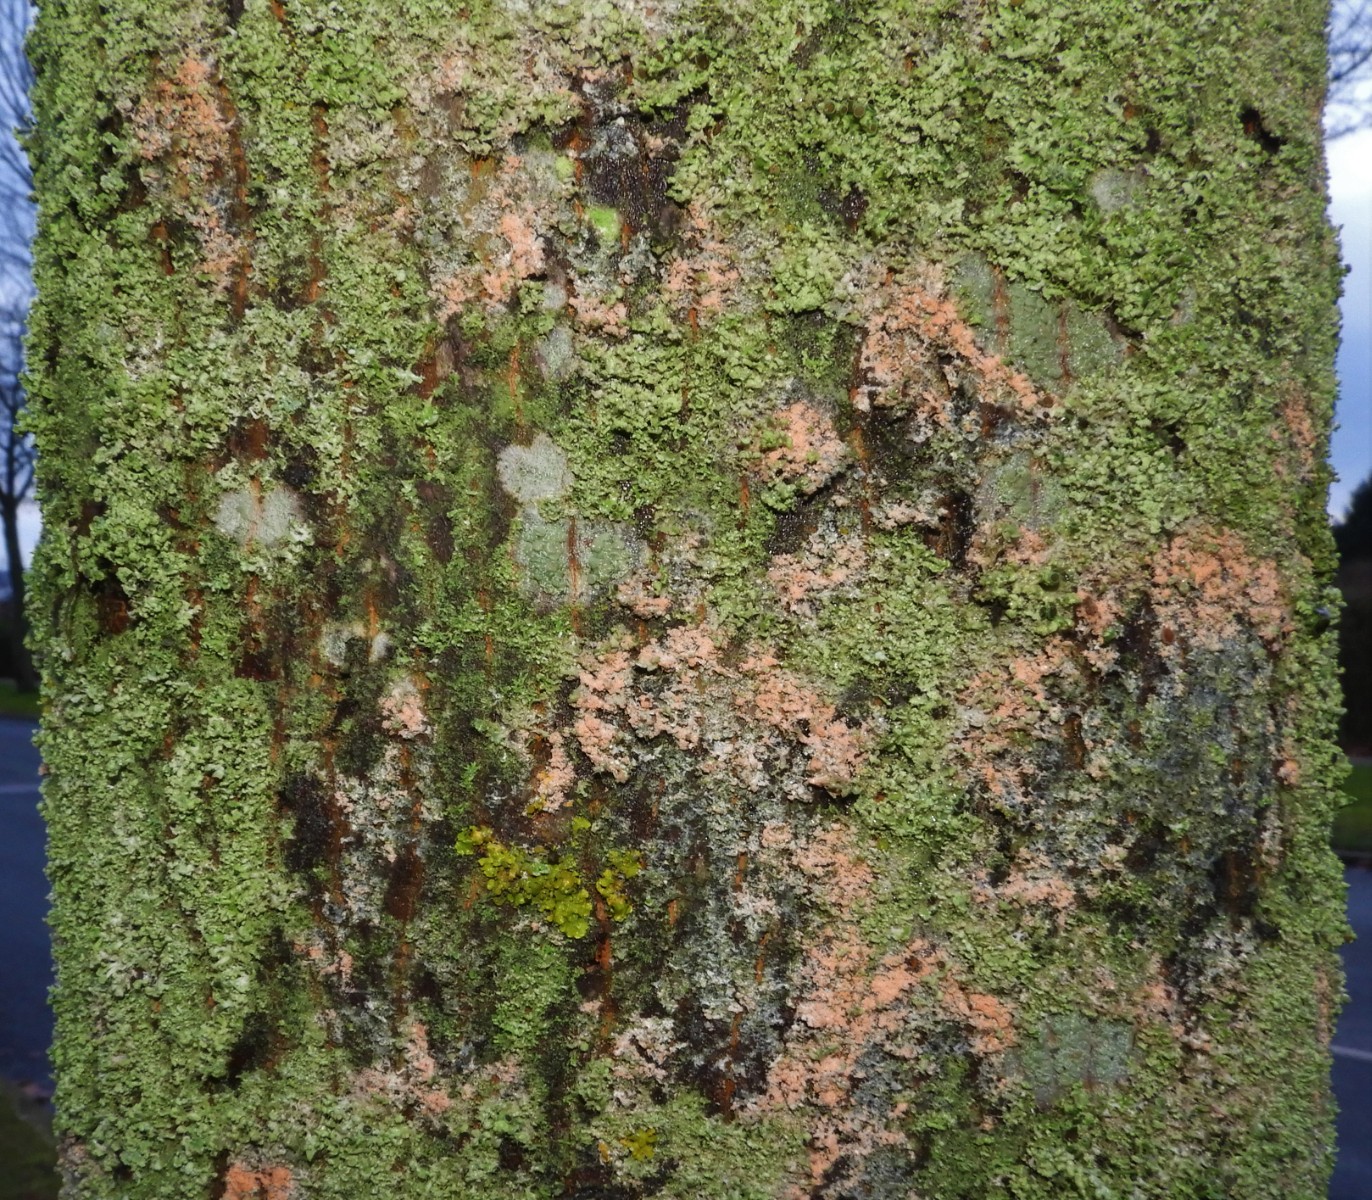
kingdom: Fungi
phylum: Basidiomycota
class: Agaricomycetes
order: Corticiales
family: Corticiaceae
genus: Erythricium
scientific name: Erythricium aurantiacum
